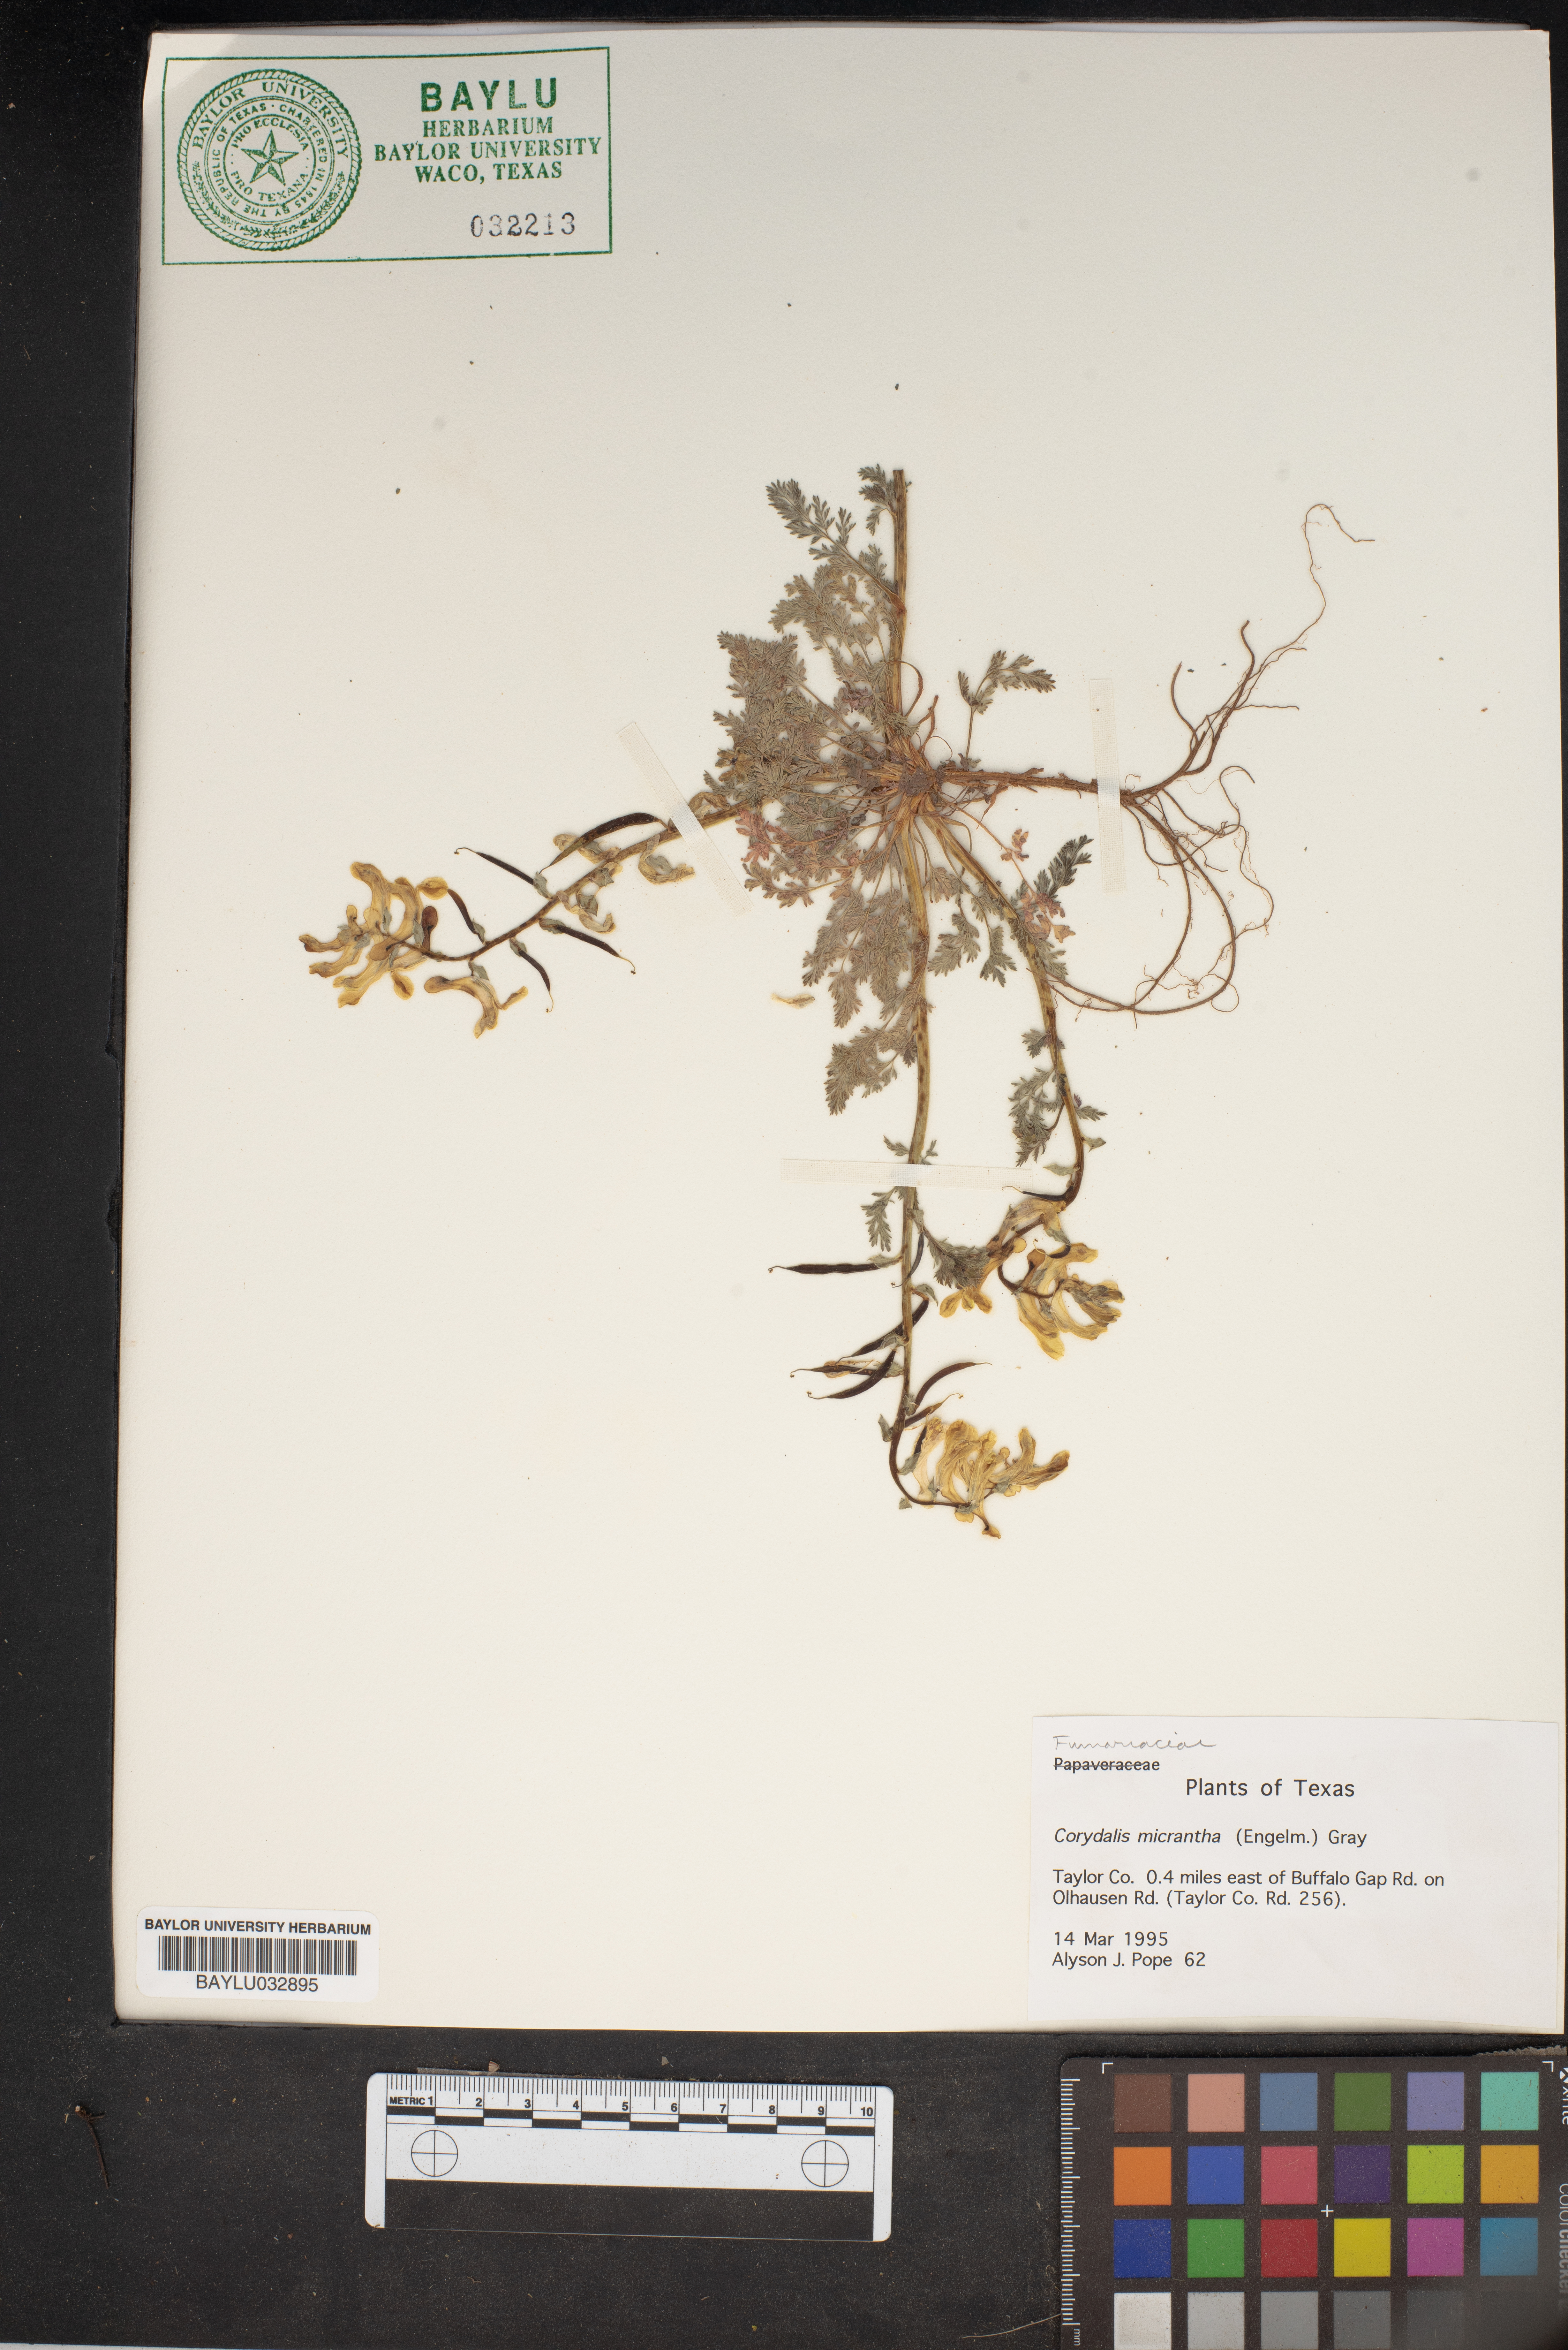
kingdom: Plantae
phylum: Tracheophyta
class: Magnoliopsida
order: Ranunculales
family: Papaveraceae
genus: Corydalis
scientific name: Corydalis micrantha
